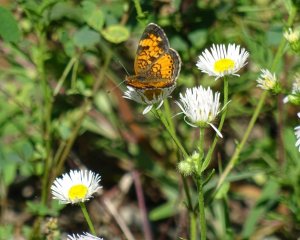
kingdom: Animalia
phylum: Arthropoda
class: Insecta
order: Lepidoptera
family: Nymphalidae
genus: Phyciodes
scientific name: Phyciodes tharos
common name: Pearl Crescent
